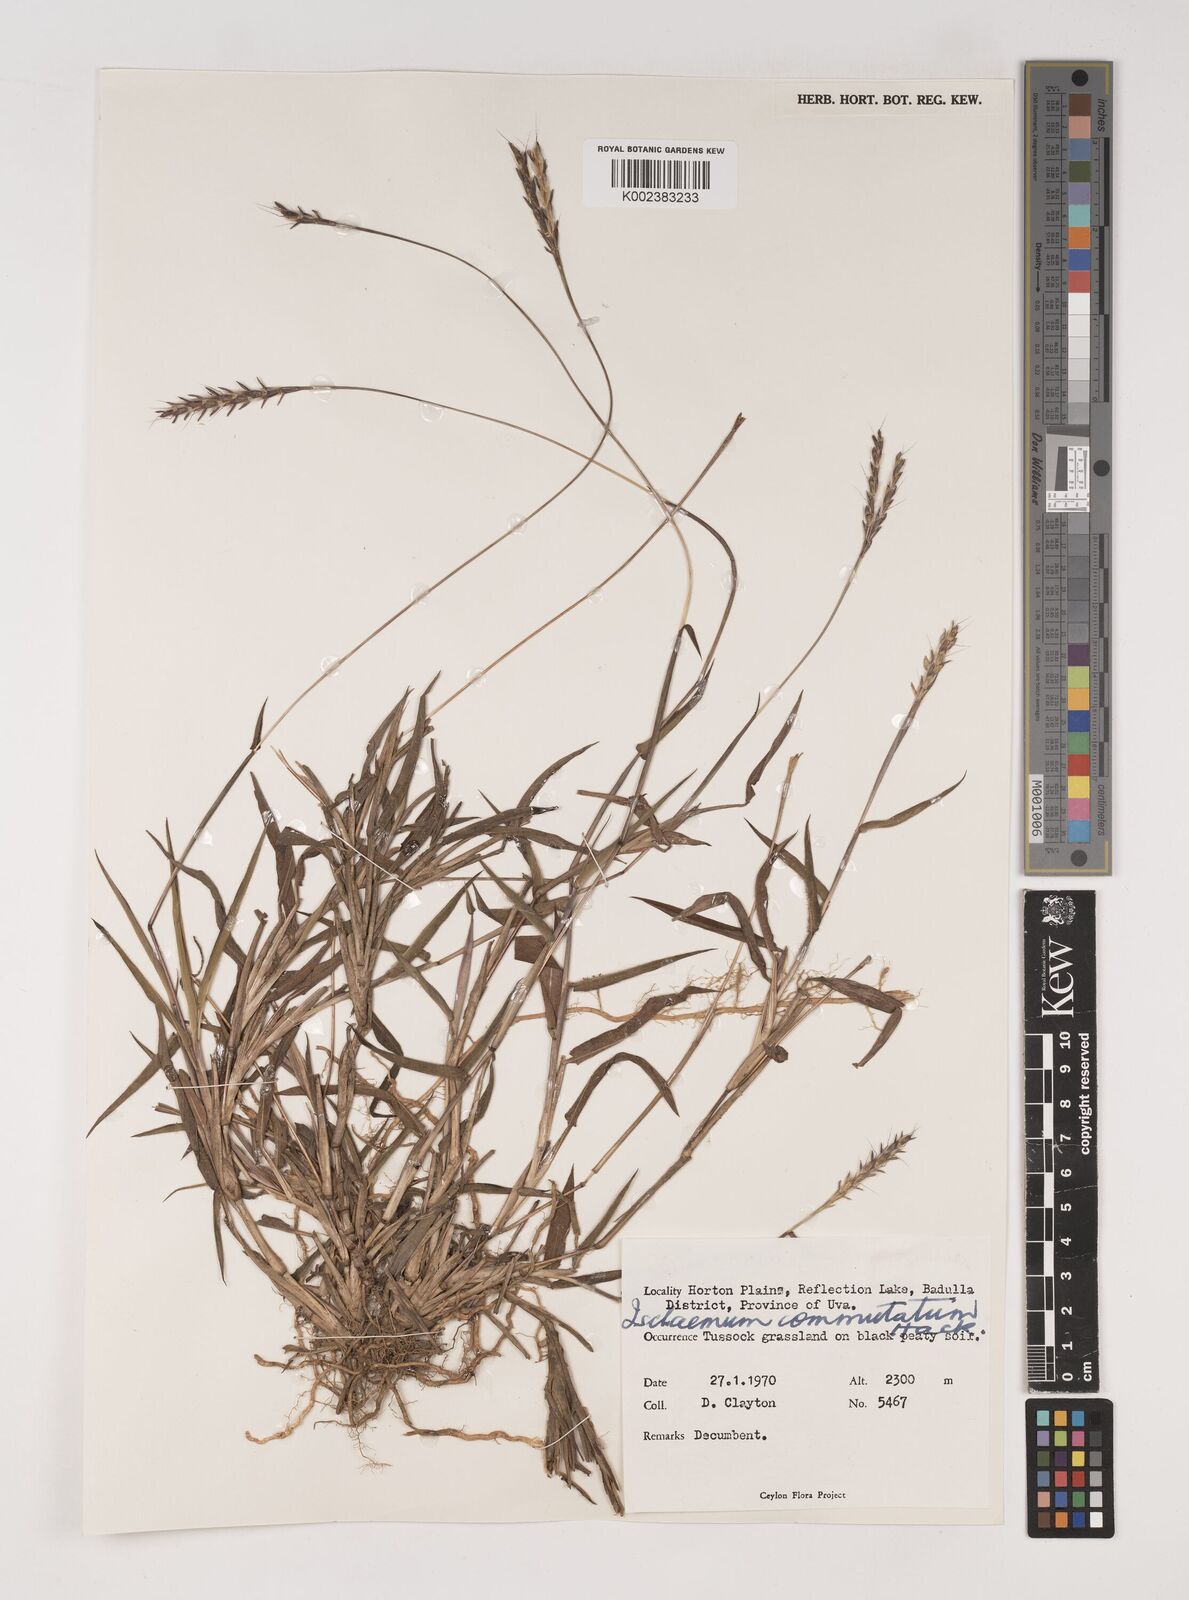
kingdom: Plantae
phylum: Tracheophyta
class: Liliopsida
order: Poales
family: Poaceae
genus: Ischaemum
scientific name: Ischaemum commutatum
